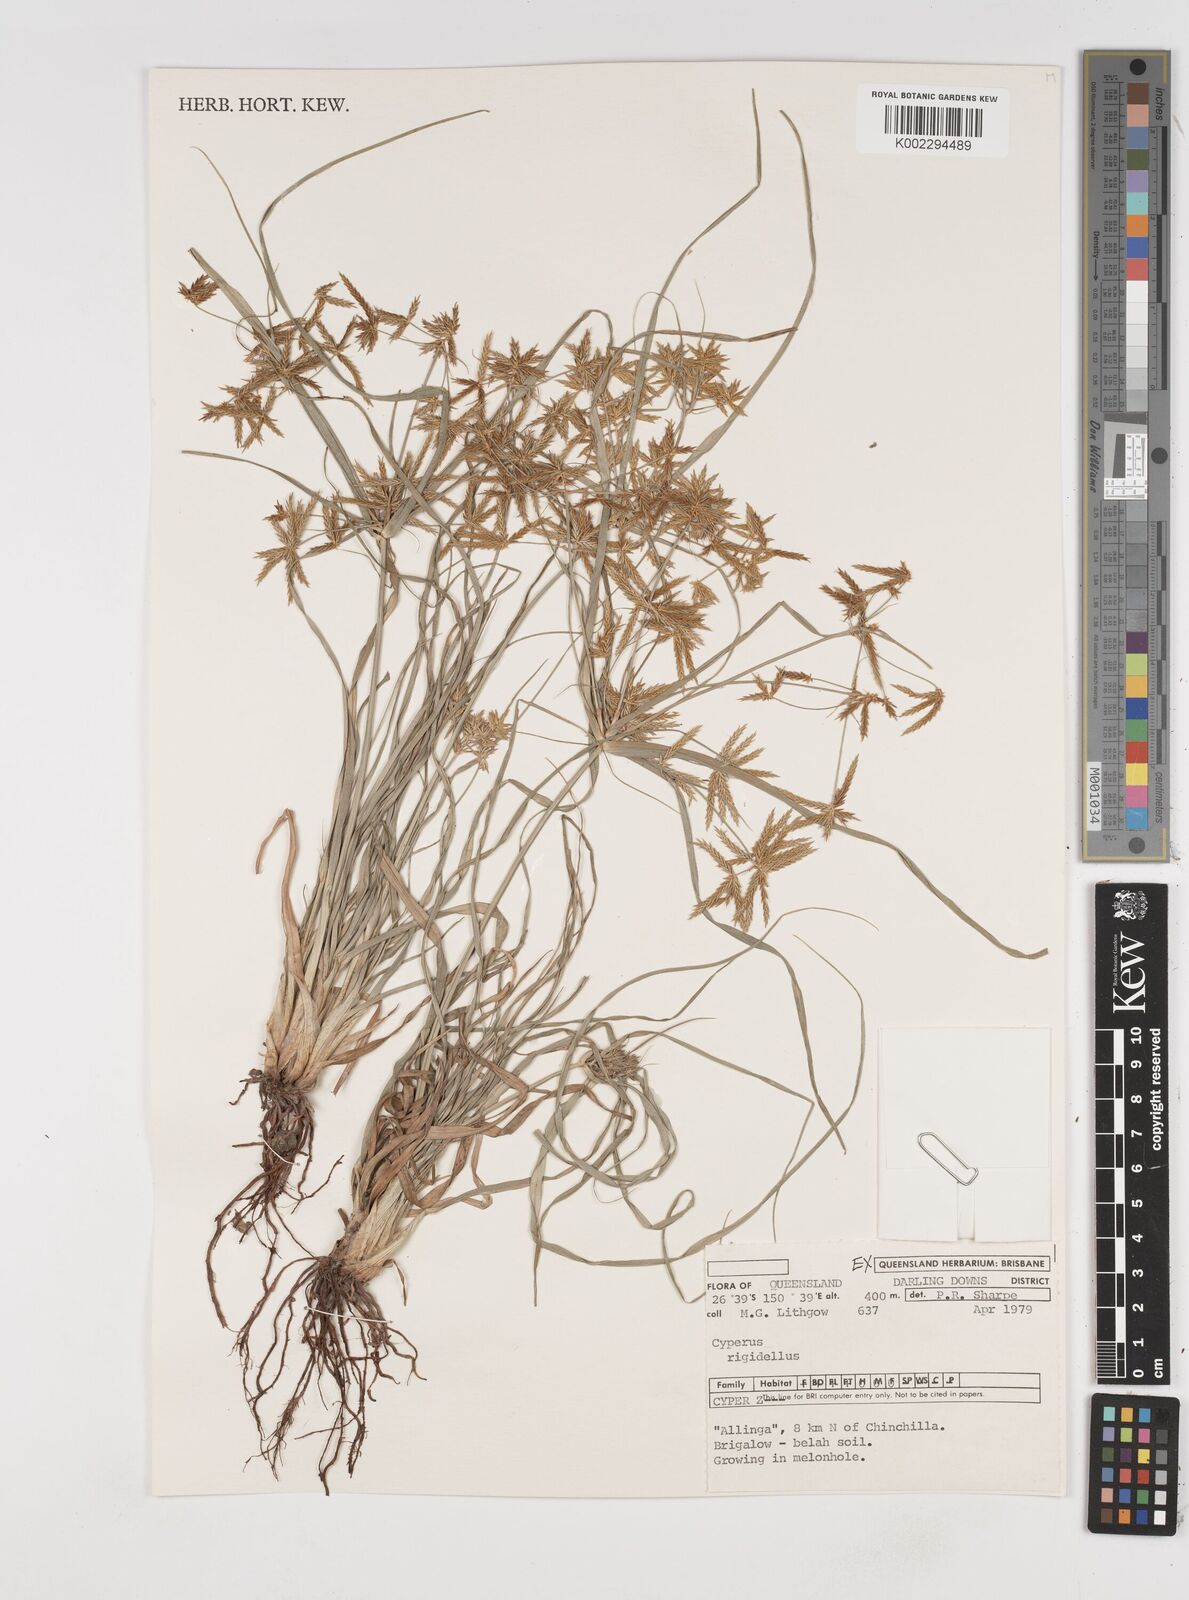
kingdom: Plantae
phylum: Tracheophyta
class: Liliopsida
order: Poales
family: Cyperaceae
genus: Cyperus
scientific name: Cyperus rigidellus
